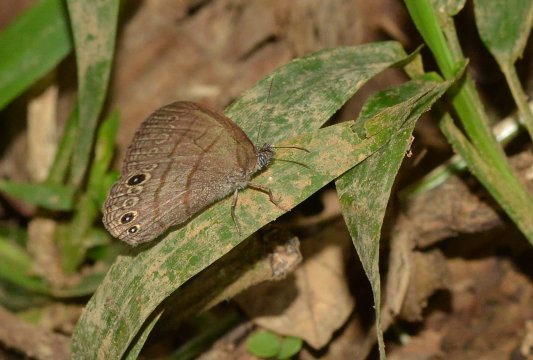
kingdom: Animalia
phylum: Arthropoda
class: Insecta
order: Lepidoptera
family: Nymphalidae
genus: Hermeuptychia
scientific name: Hermeuptychia hermes
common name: Hermes Satyr
